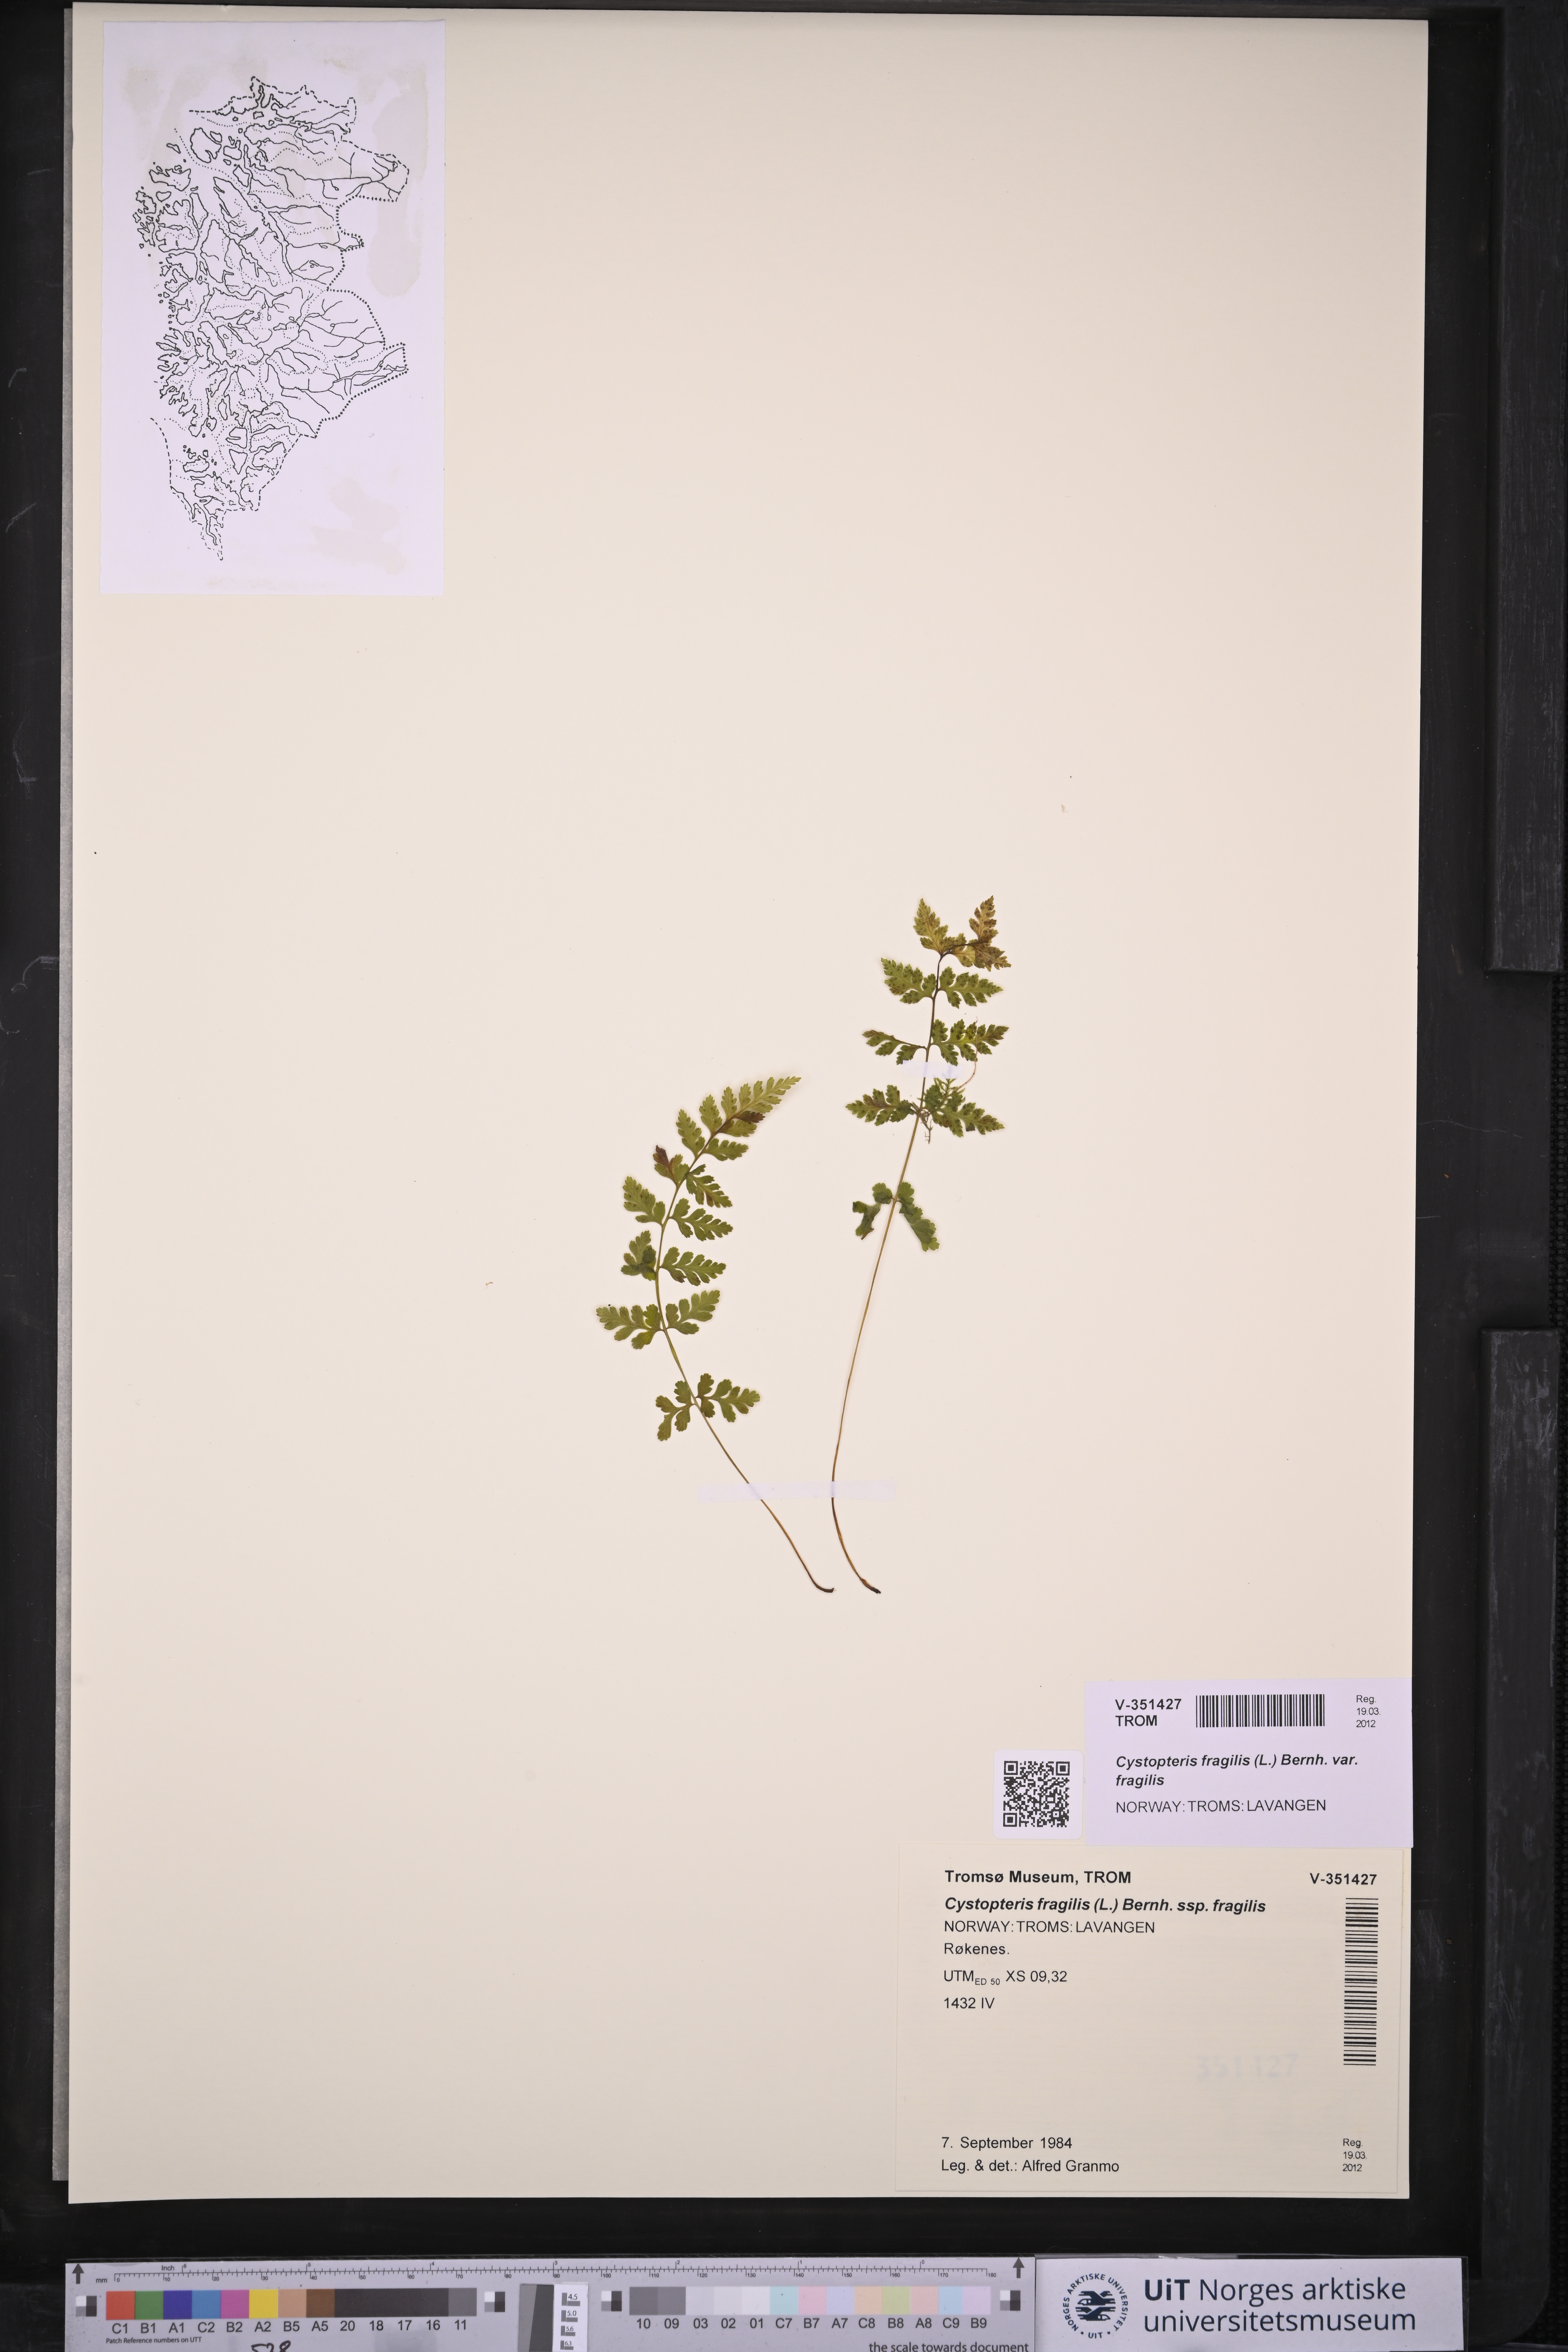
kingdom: Plantae
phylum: Tracheophyta
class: Polypodiopsida
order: Polypodiales
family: Cystopteridaceae
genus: Cystopteris
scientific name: Cystopteris fragilis
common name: Brittle bladder fern
